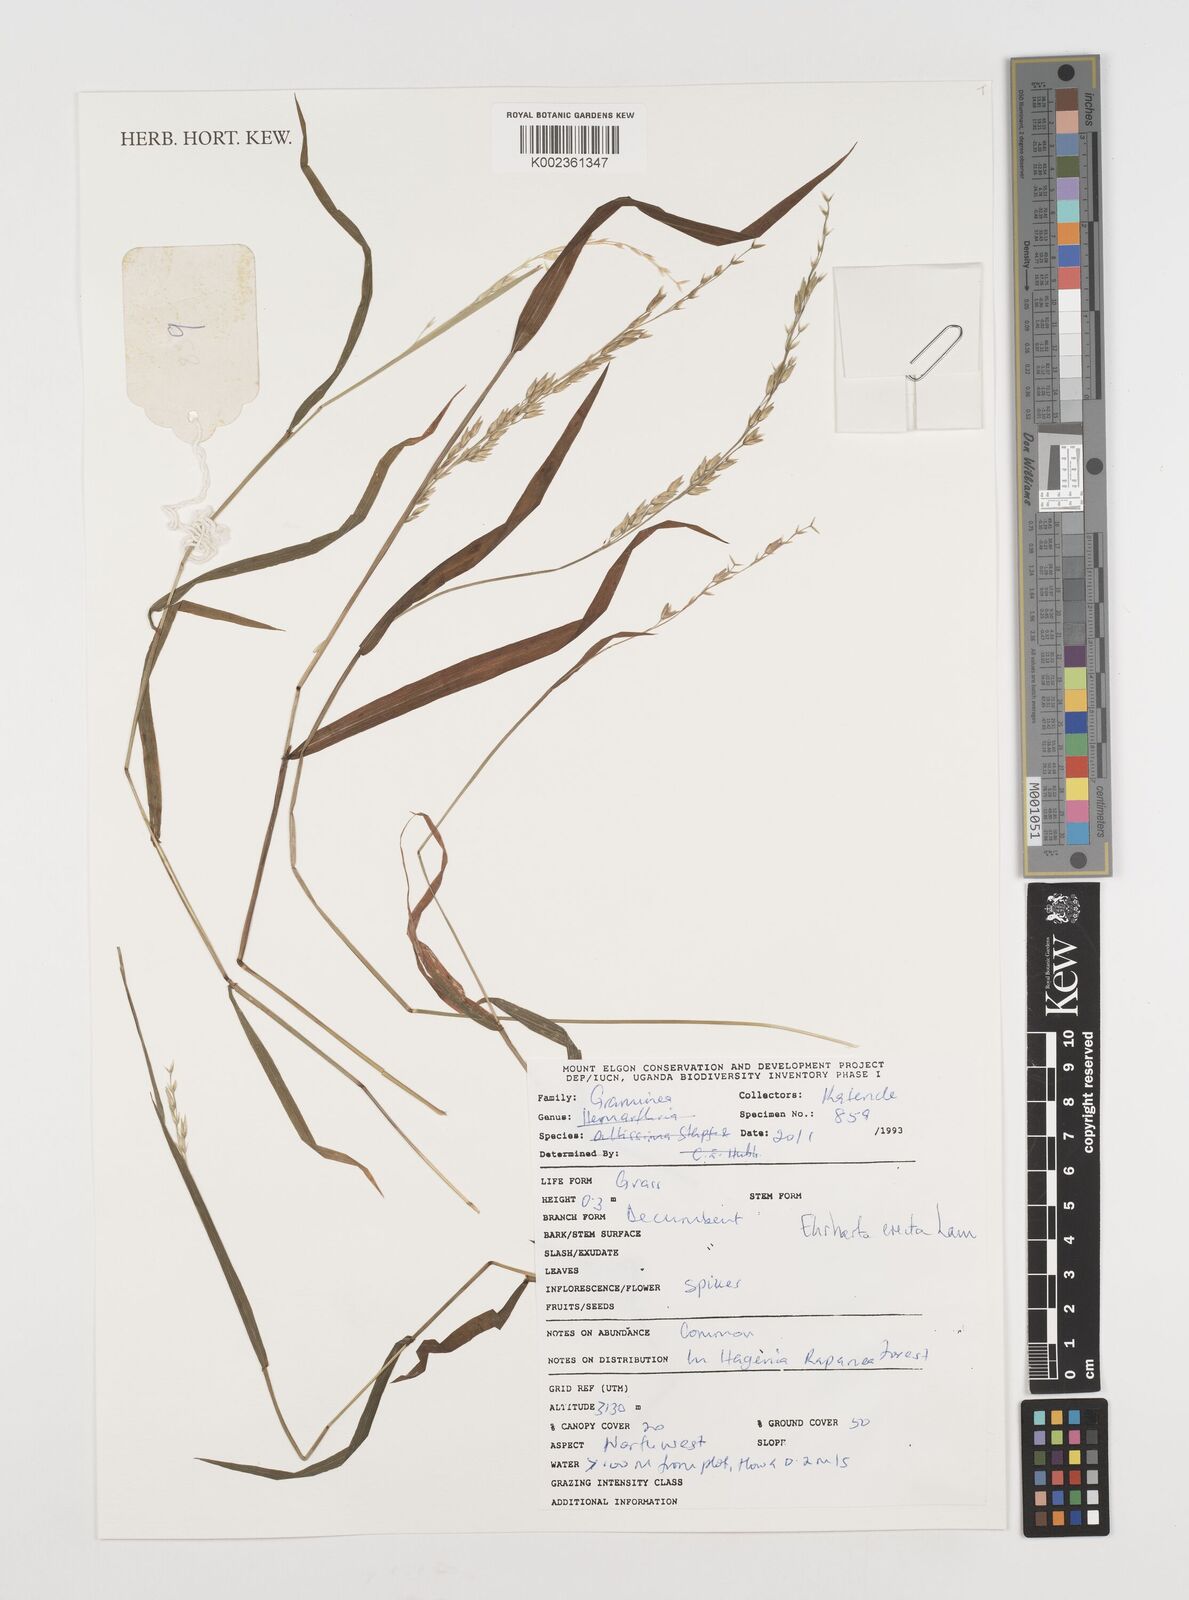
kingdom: Plantae
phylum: Tracheophyta
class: Liliopsida
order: Poales
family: Poaceae
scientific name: Poaceae
